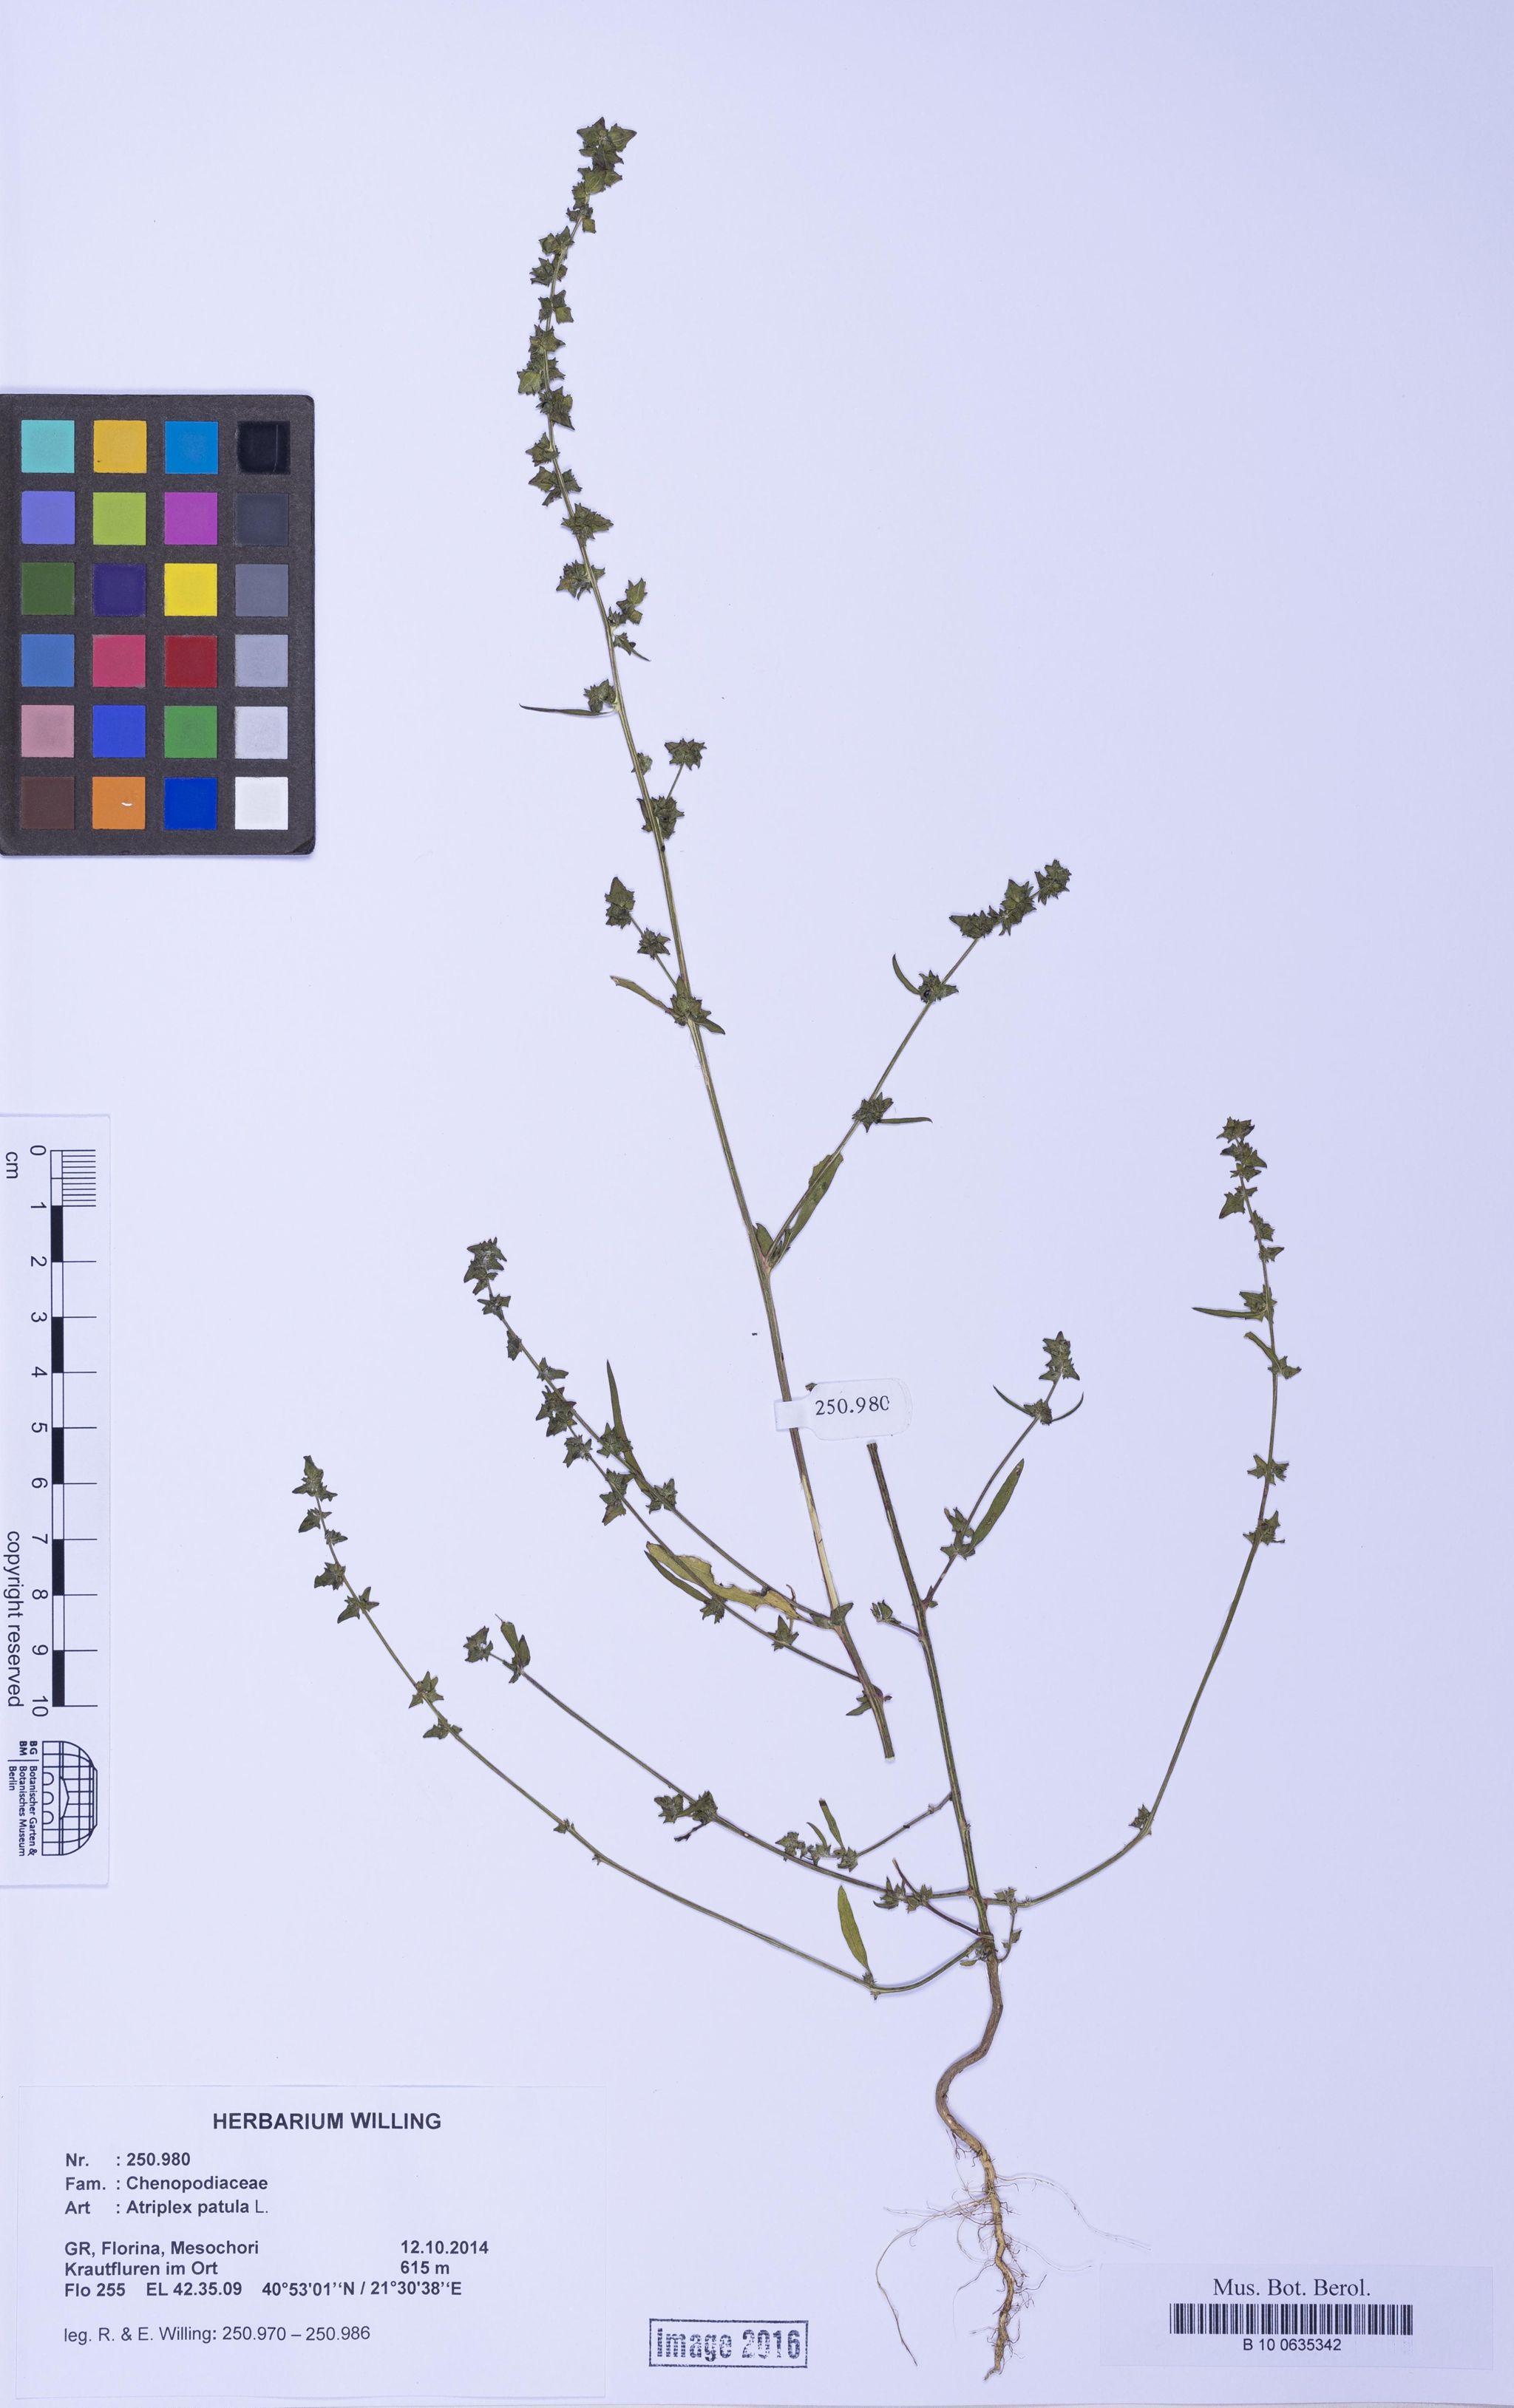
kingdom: Plantae
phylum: Tracheophyta
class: Magnoliopsida
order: Caryophyllales
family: Amaranthaceae
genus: Atriplex
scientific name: Atriplex patula
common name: Common orache
